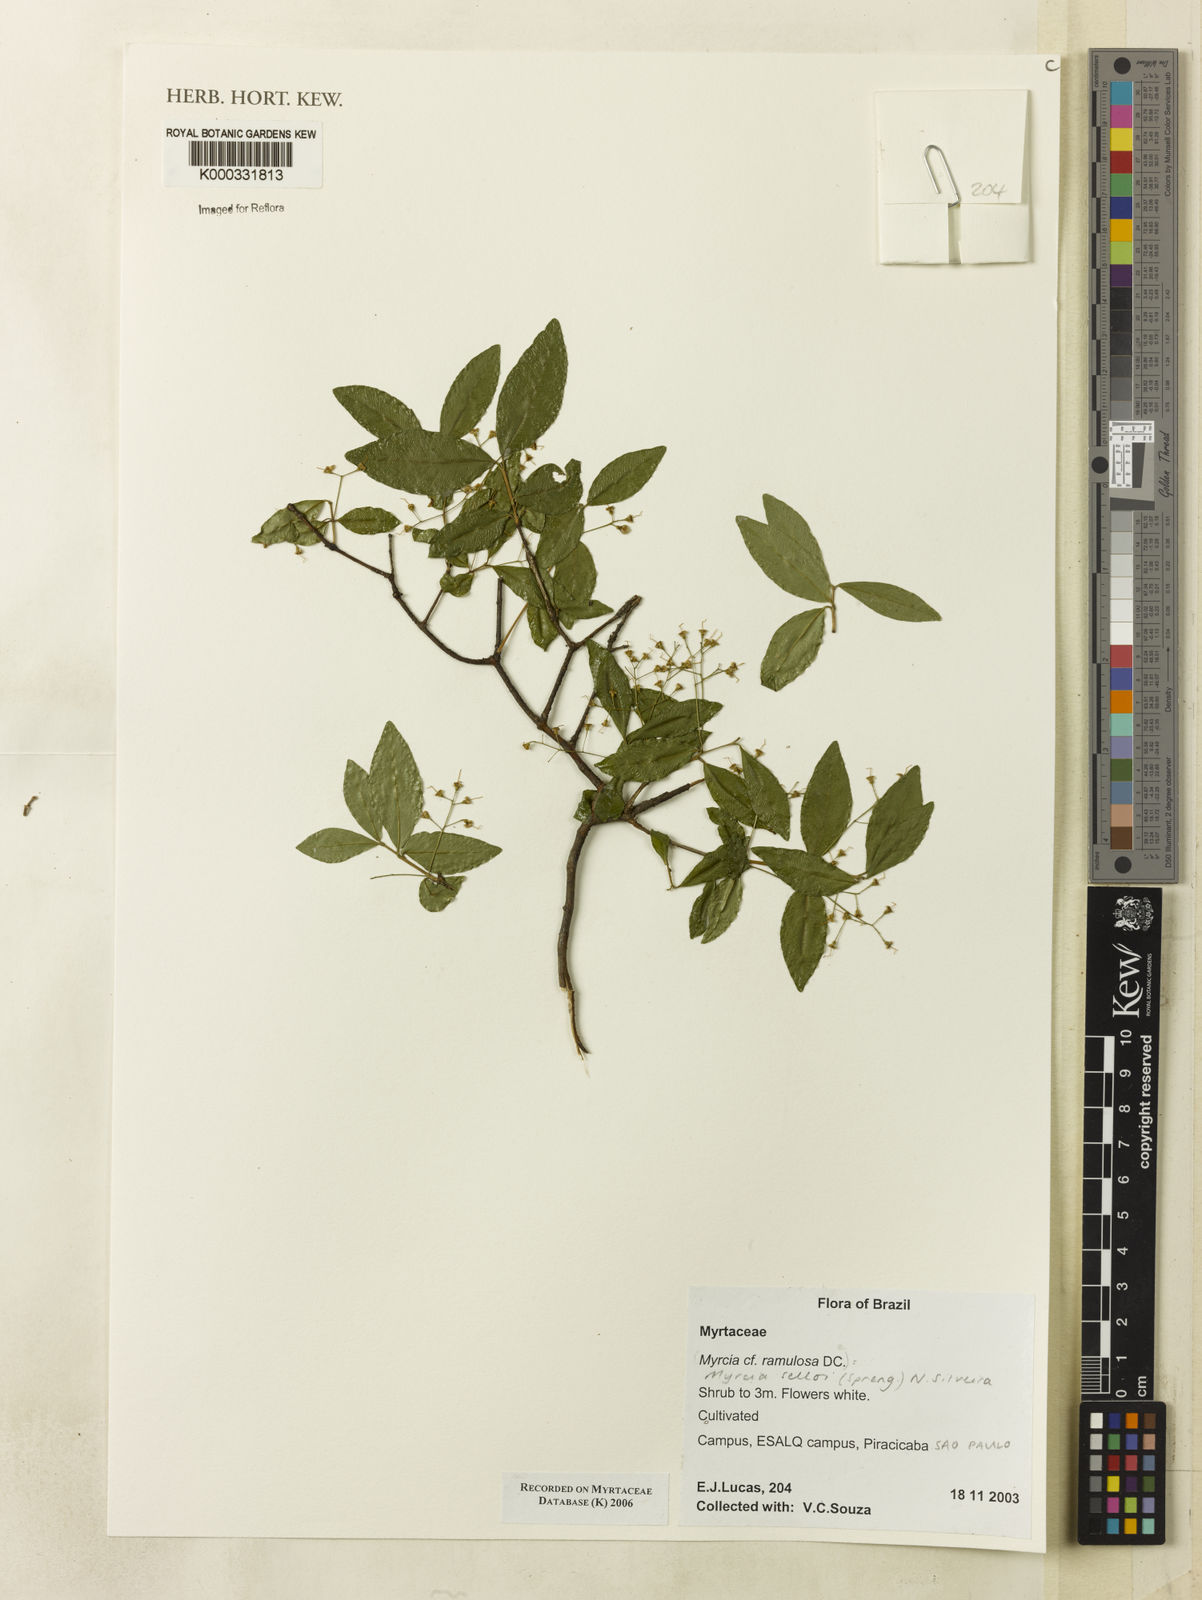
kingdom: Plantae
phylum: Tracheophyta
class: Magnoliopsida
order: Myrtales
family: Myrtaceae
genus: Myrcia
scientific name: Myrcia selloi
